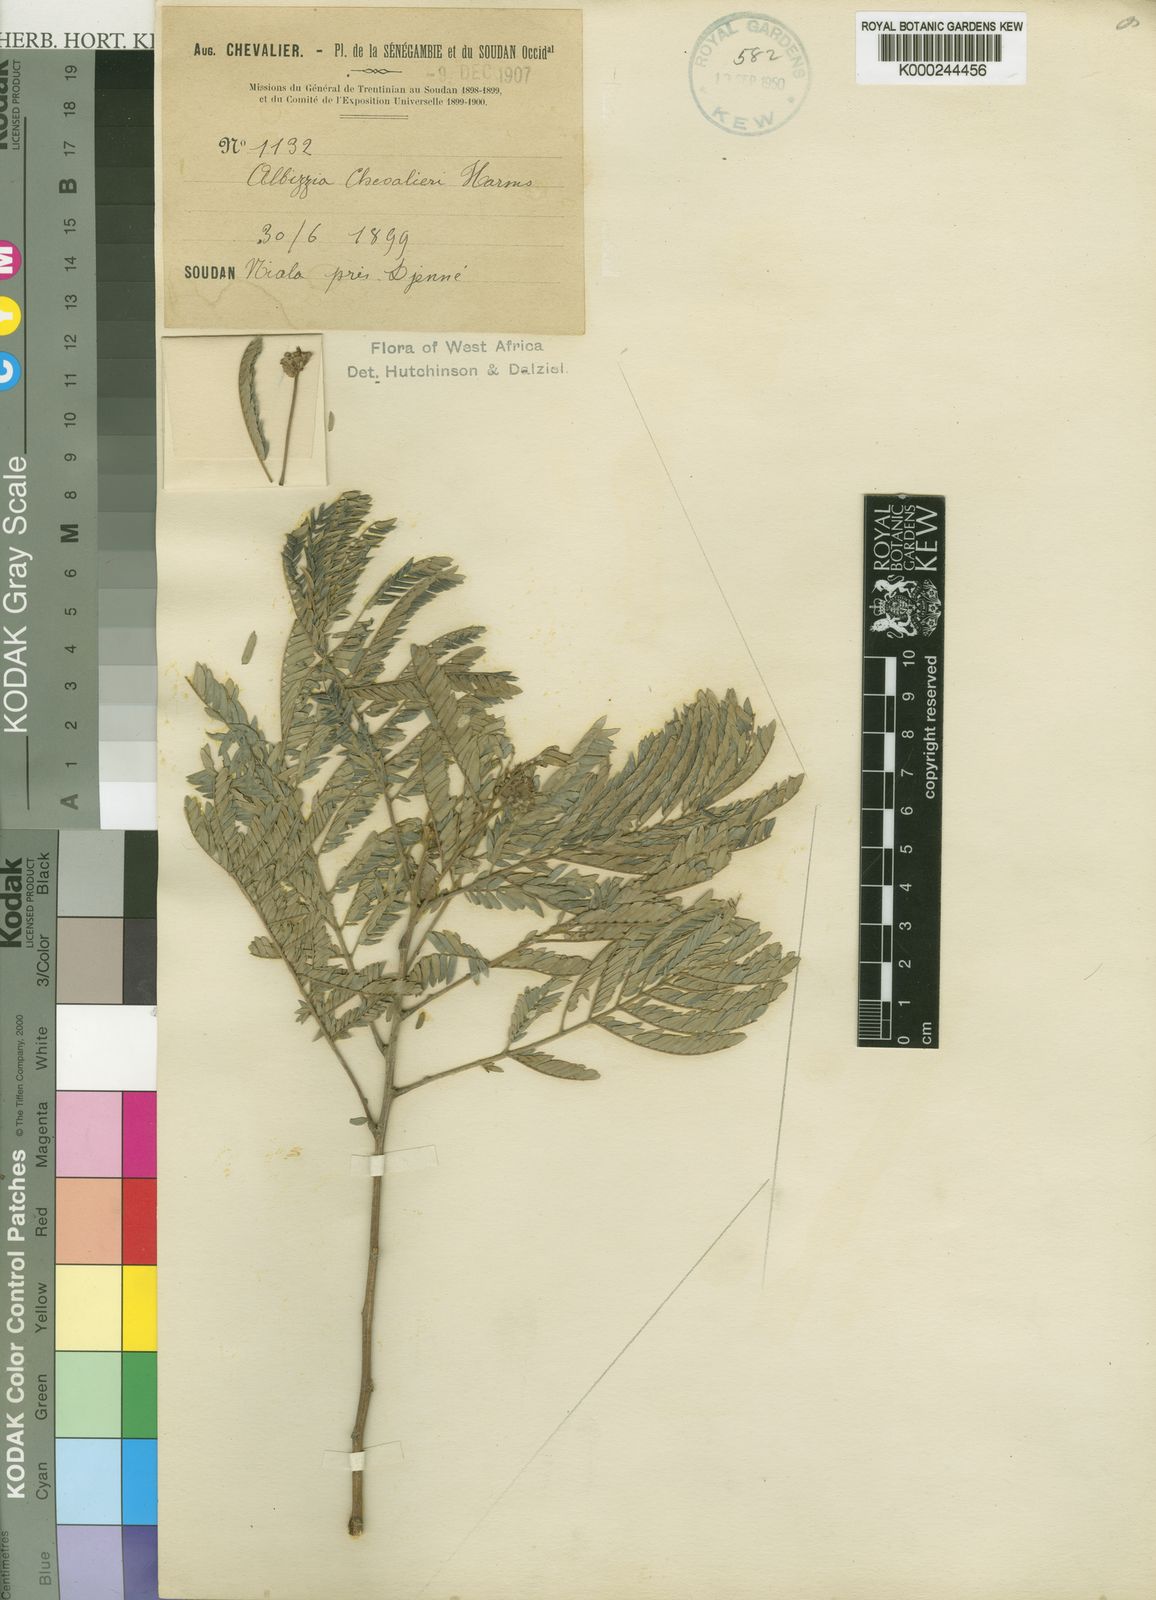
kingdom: Plantae
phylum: Tracheophyta
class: Magnoliopsida
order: Fabales
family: Fabaceae
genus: Albizia
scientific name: Albizia chevalieri
